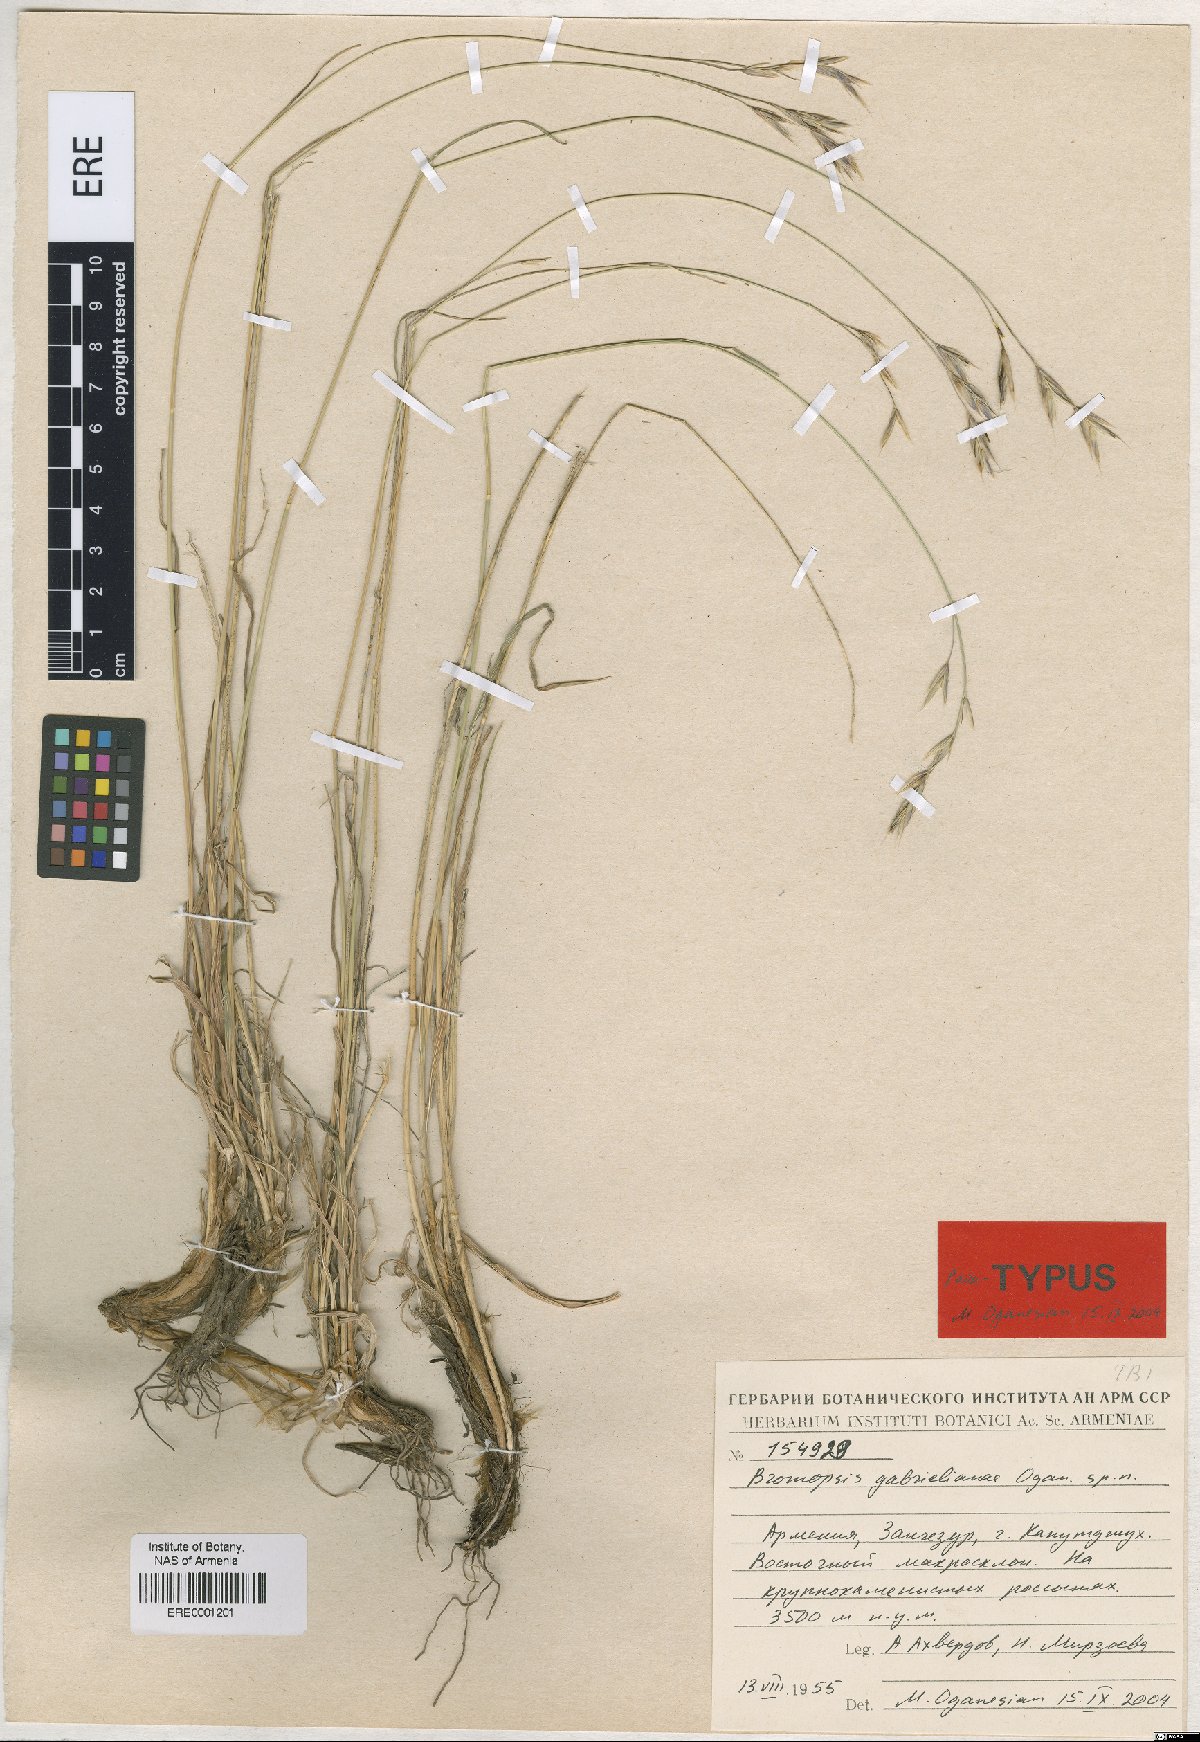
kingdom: Plantae
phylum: Tracheophyta
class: Liliopsida
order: Poales
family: Poaceae
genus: Bromus
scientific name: Bromus tomentosus
